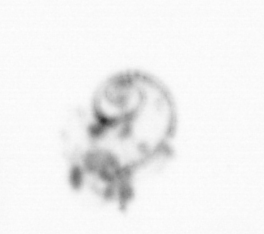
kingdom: Animalia
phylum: Mollusca
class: Gastropoda
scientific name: Gastropoda
